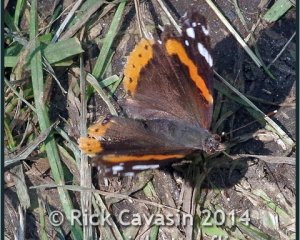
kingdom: Animalia
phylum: Arthropoda
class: Insecta
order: Lepidoptera
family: Nymphalidae
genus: Vanessa
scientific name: Vanessa atalanta
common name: Red Admiral
